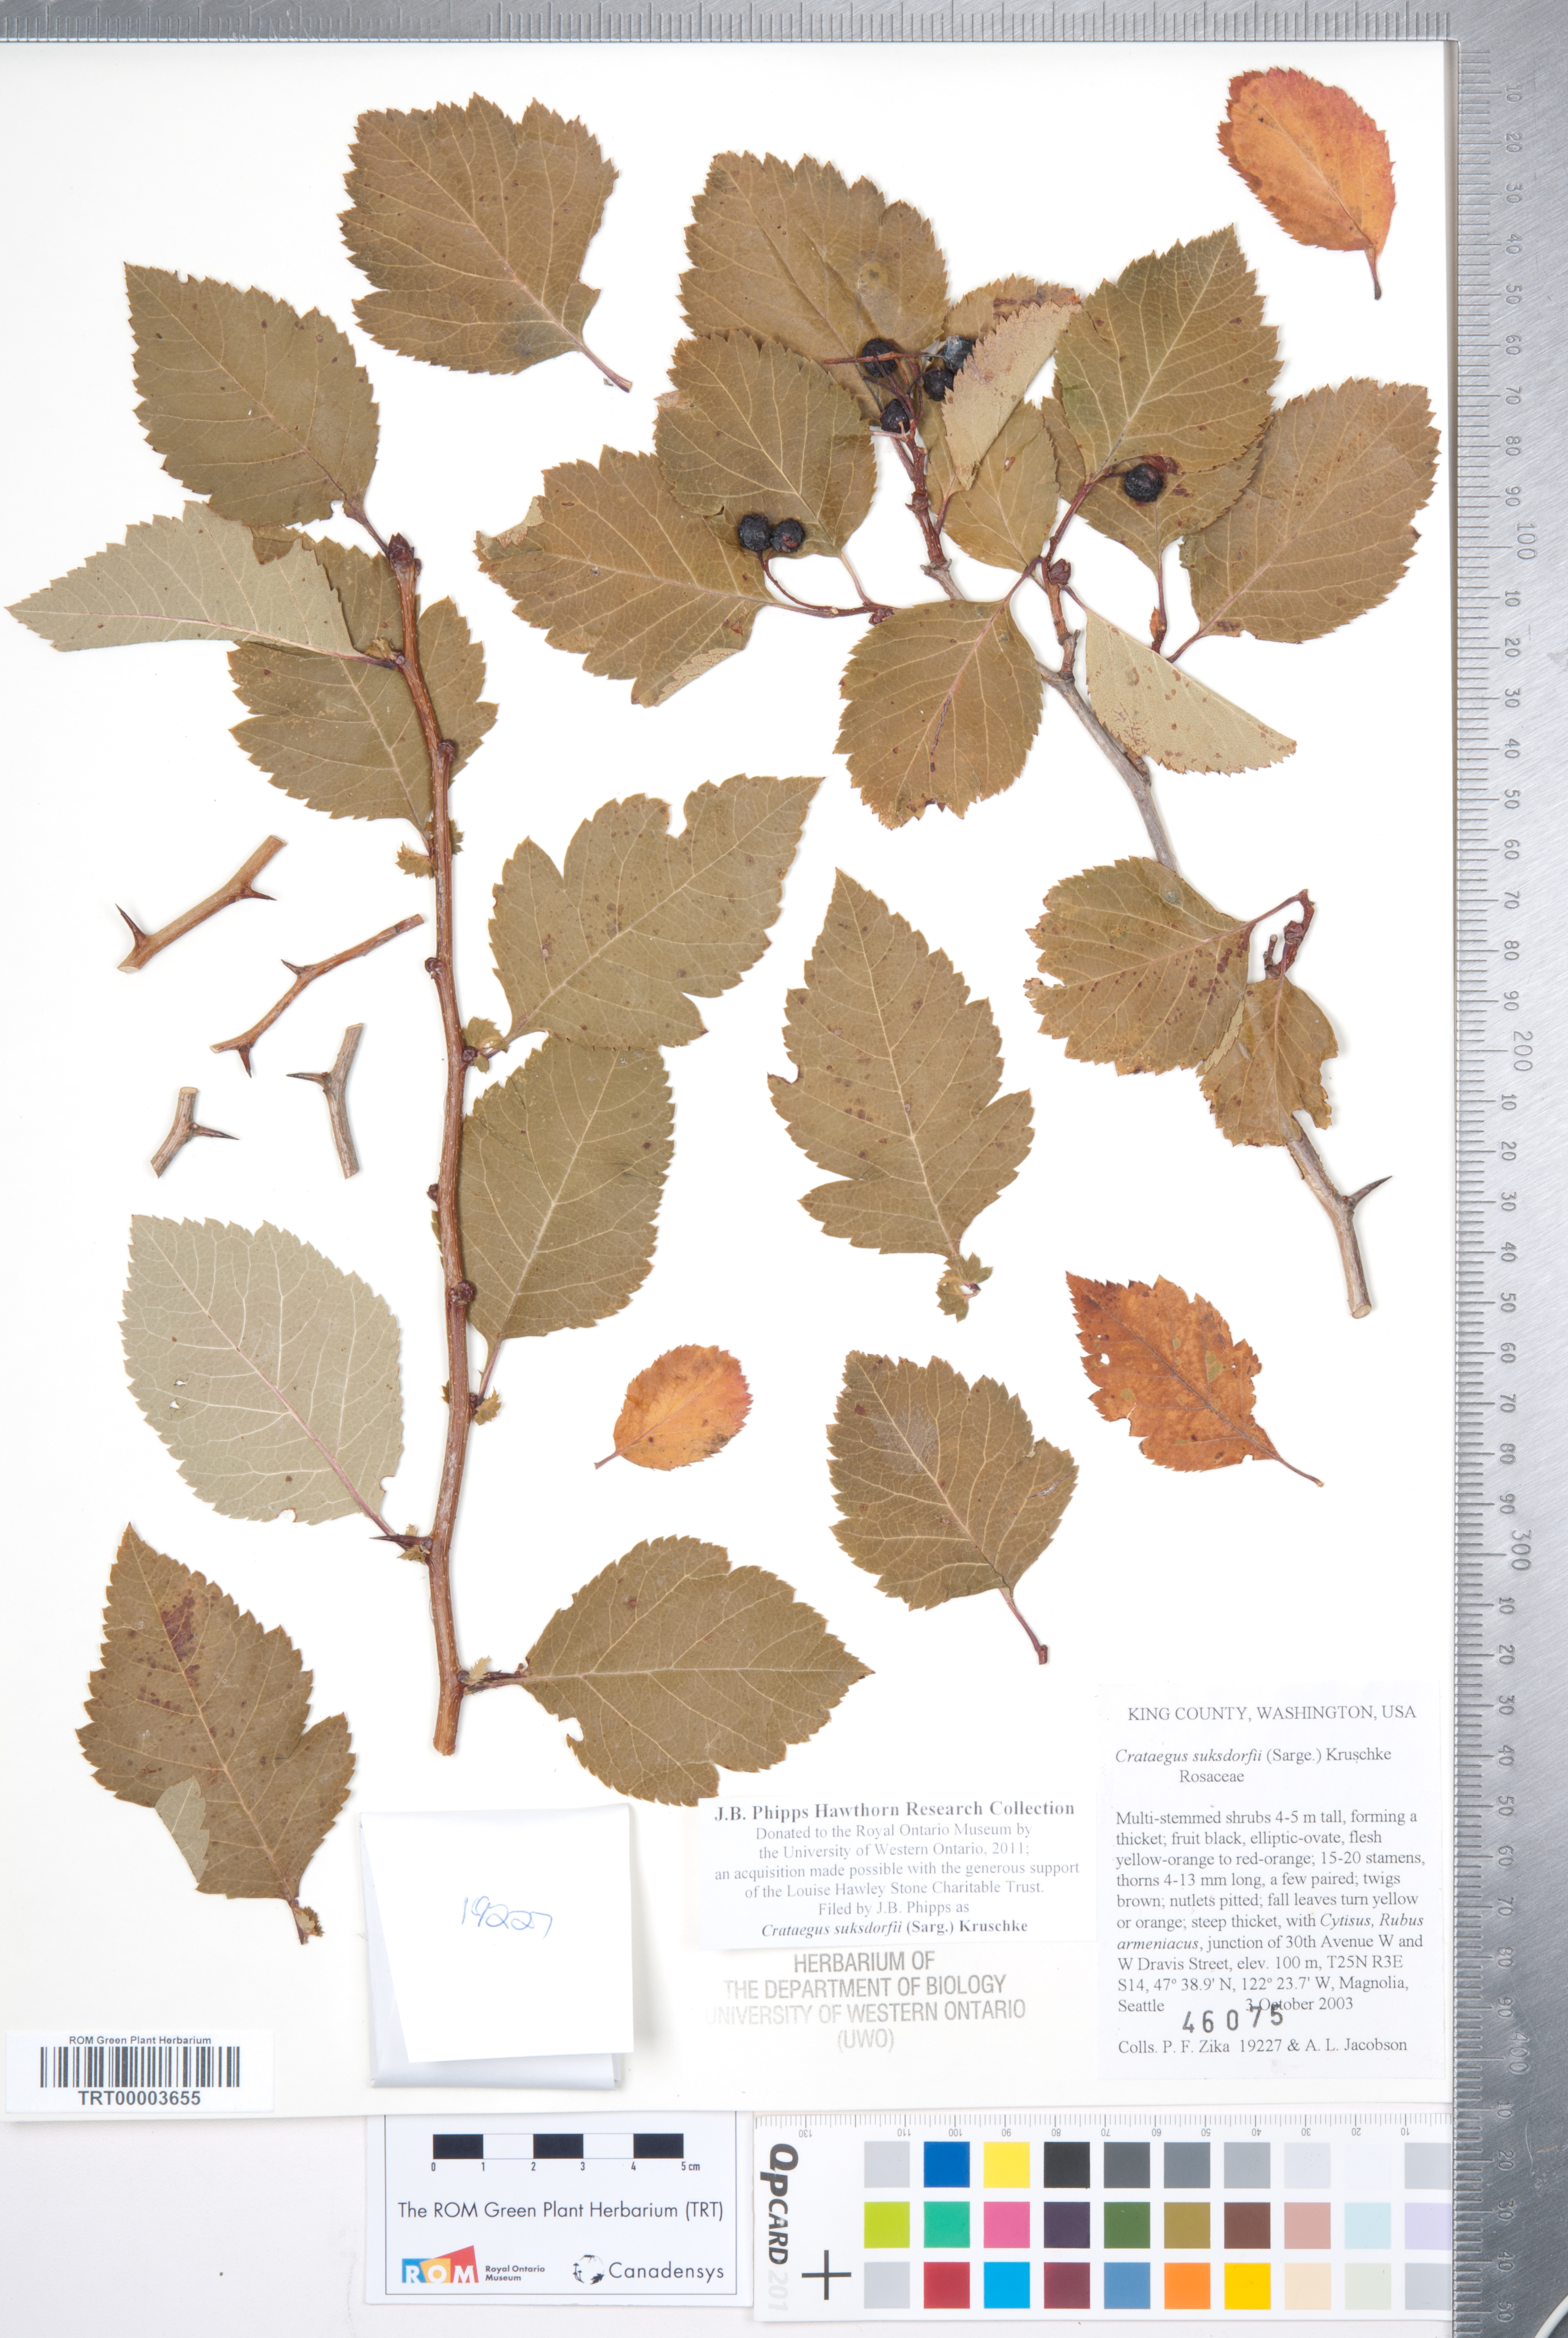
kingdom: Plantae
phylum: Tracheophyta
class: Magnoliopsida
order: Rosales
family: Rosaceae
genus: Crataegus
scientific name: Crataegus gaylussacia
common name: Huckleberry hawthorn
